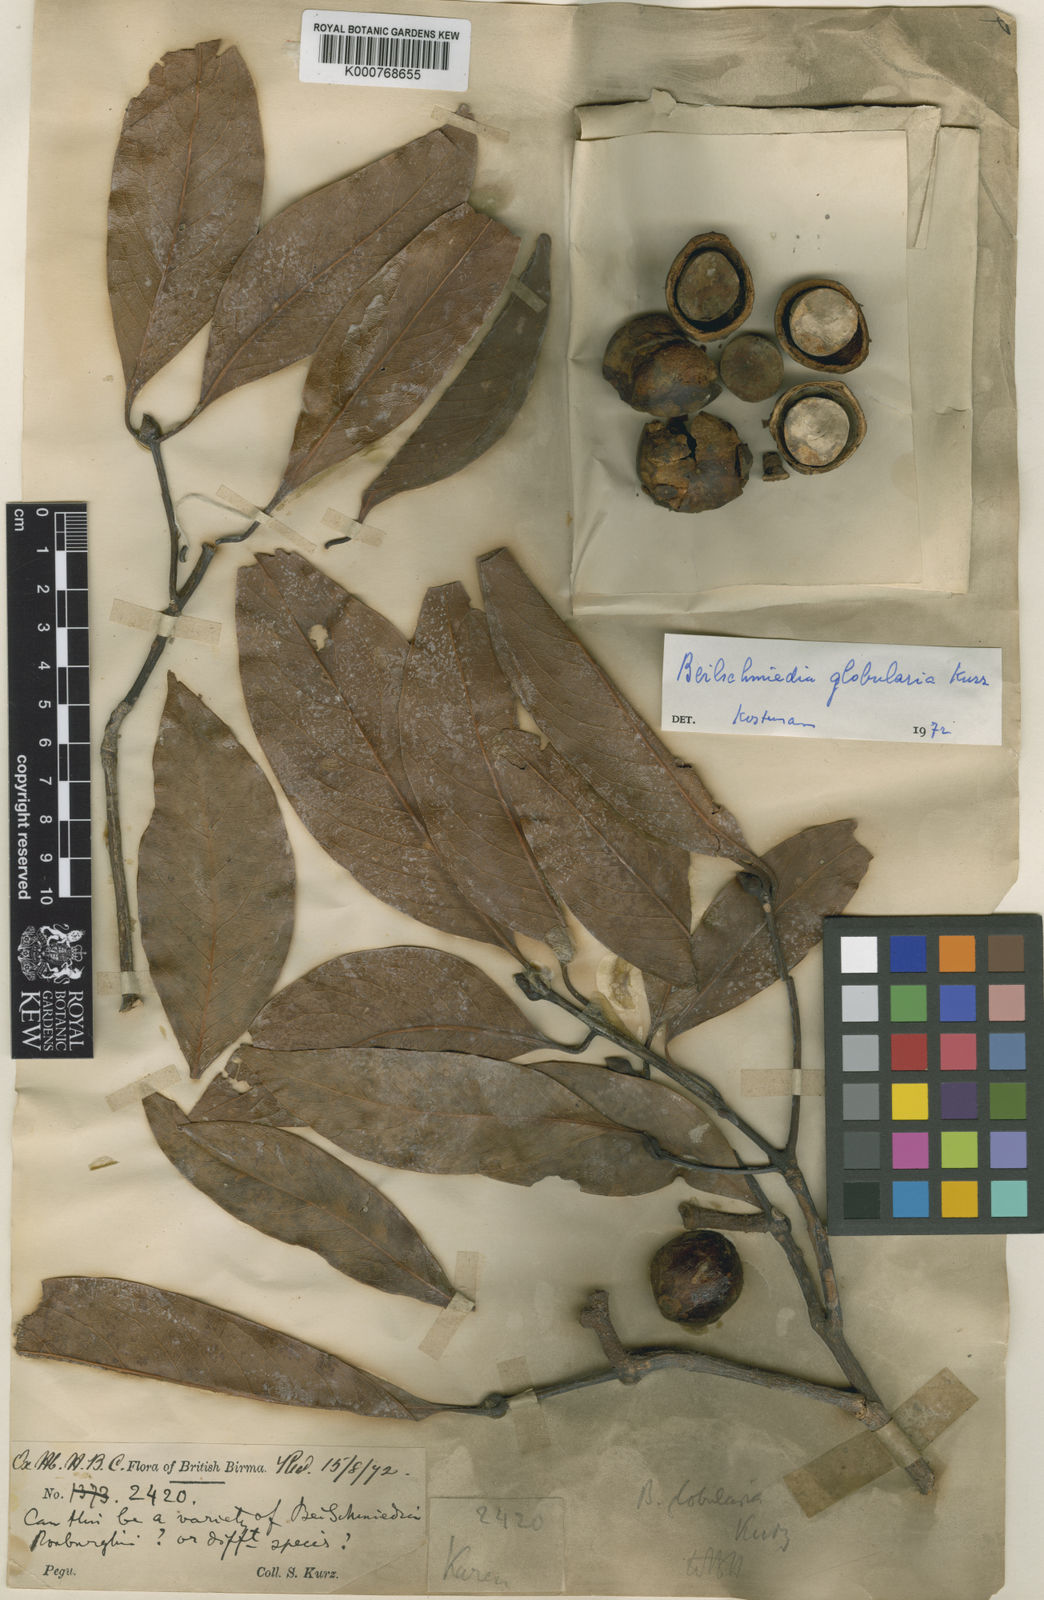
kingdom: Plantae
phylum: Tracheophyta
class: Magnoliopsida
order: Laurales
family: Lauraceae
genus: Beilschmiedia
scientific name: Beilschmiedia lucidula
